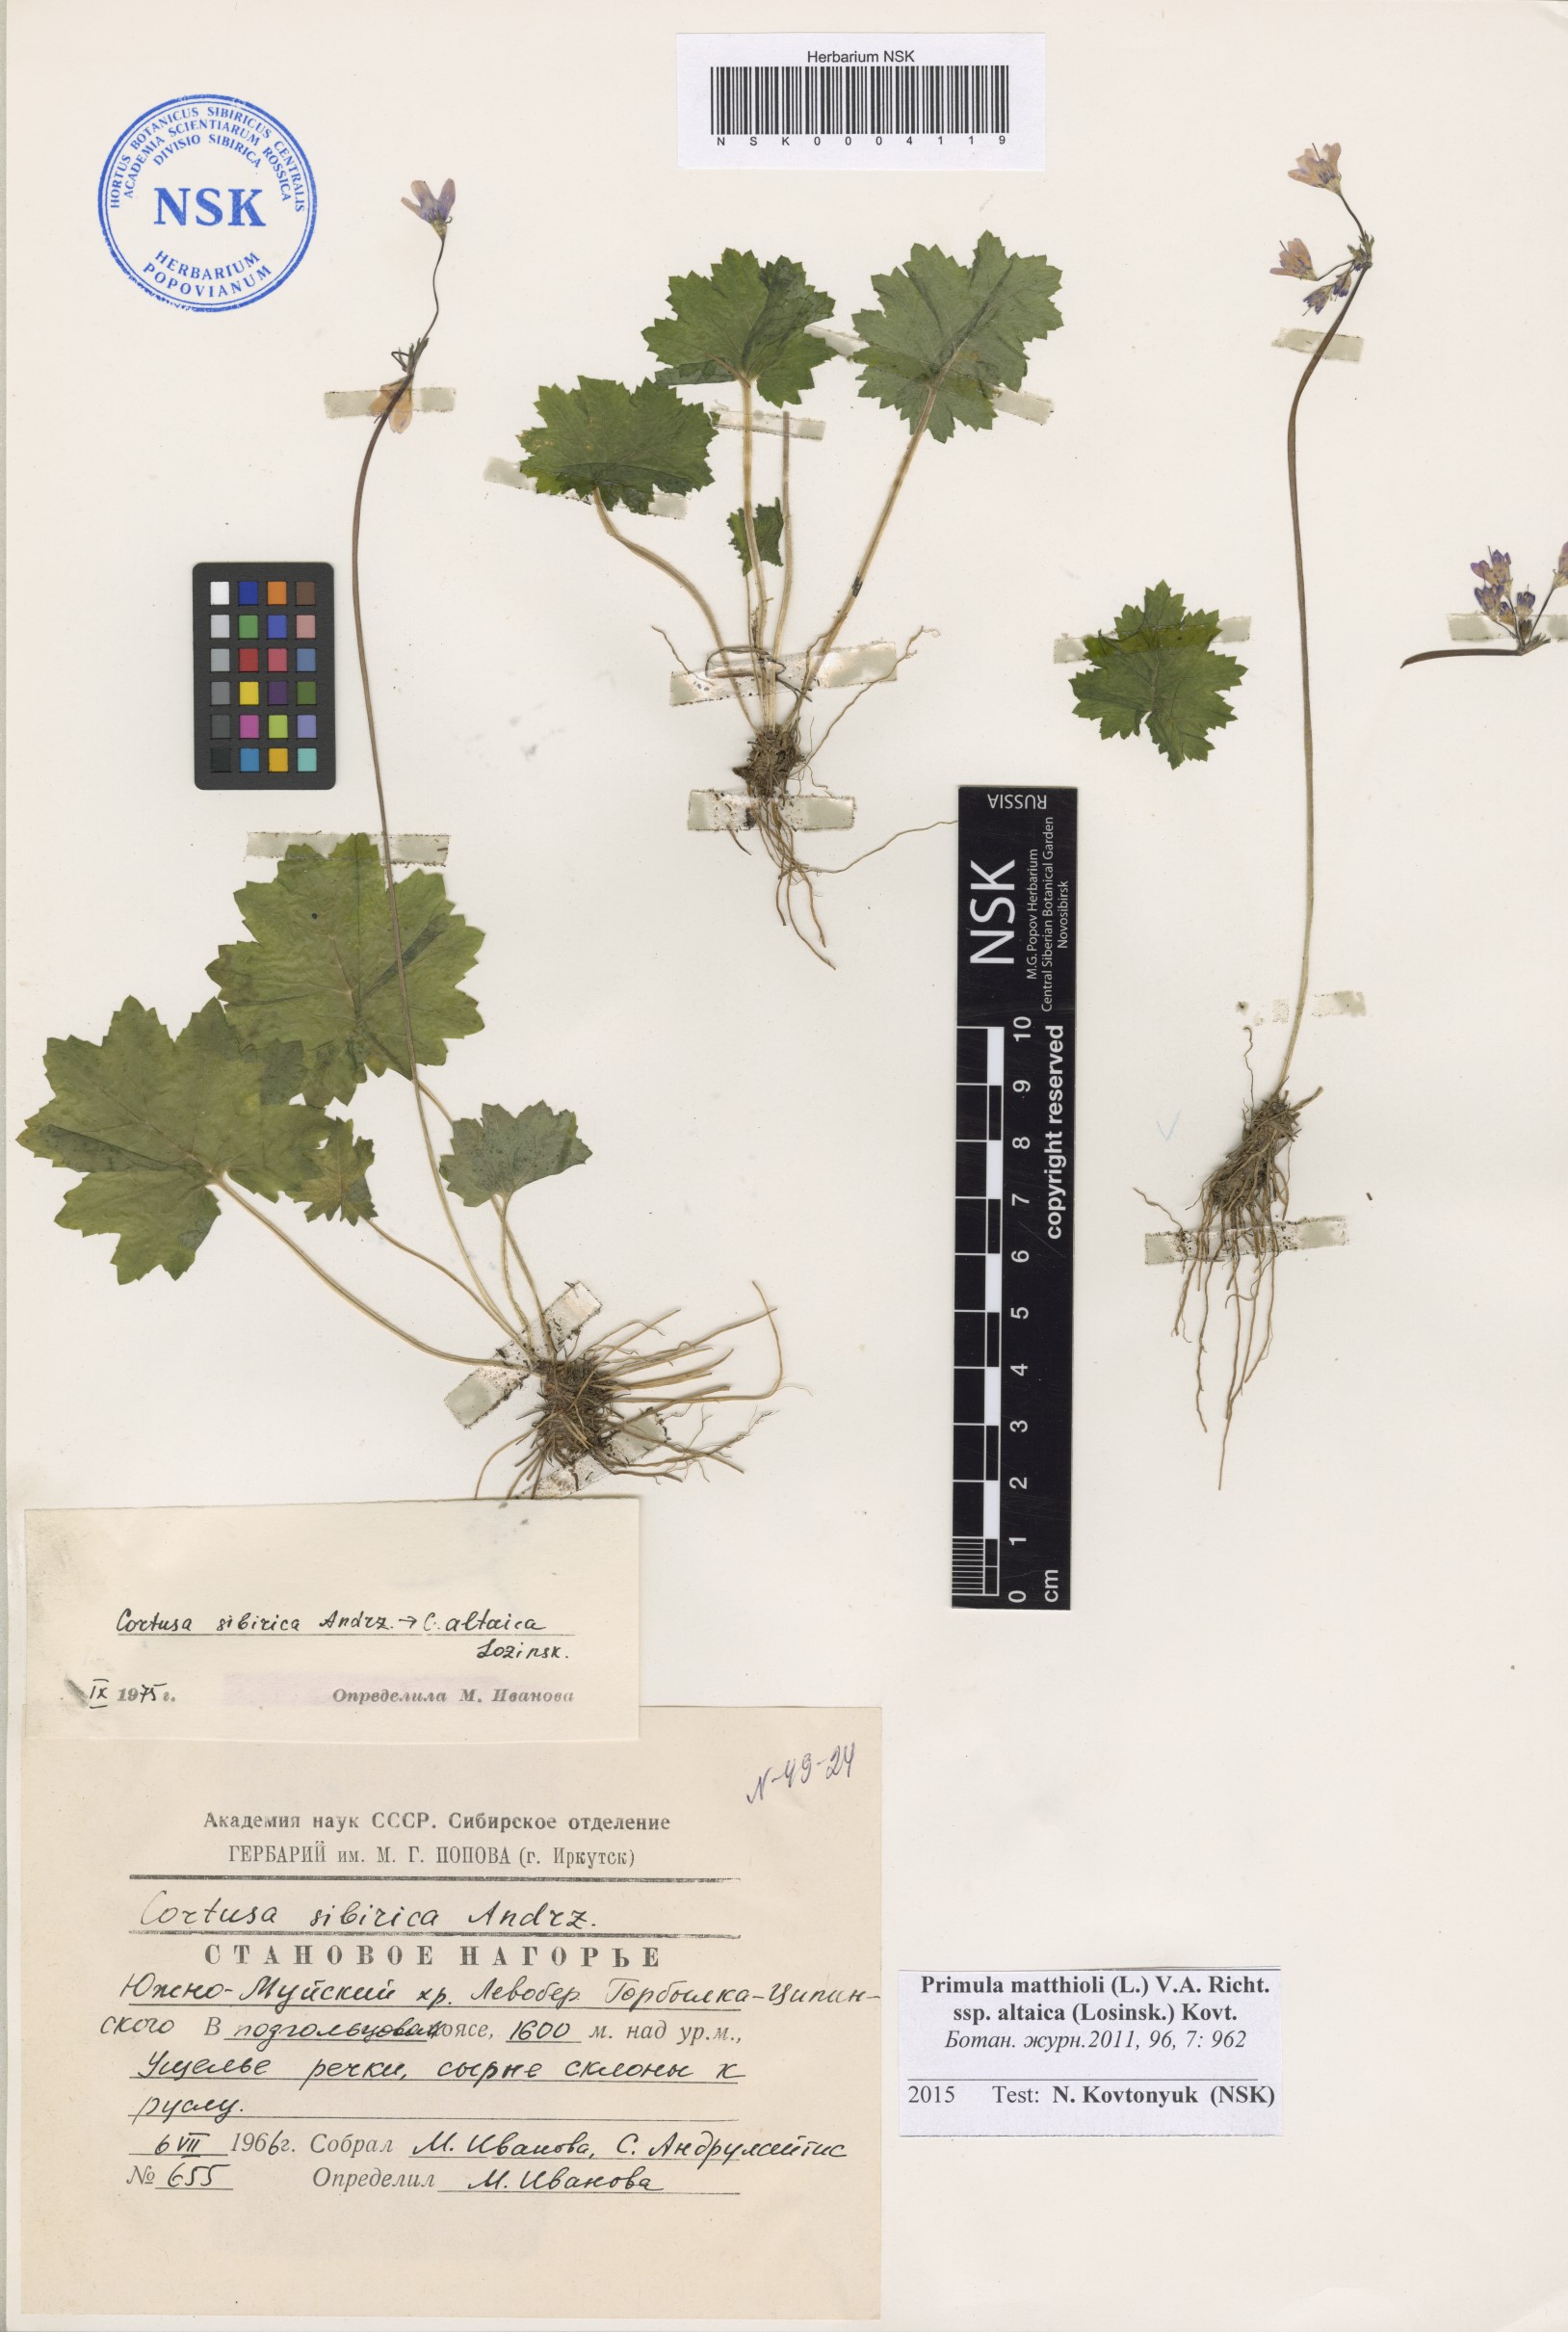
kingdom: Plantae
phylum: Tracheophyta
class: Magnoliopsida
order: Ericales
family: Primulaceae
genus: Primula
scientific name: Primula matthioli
